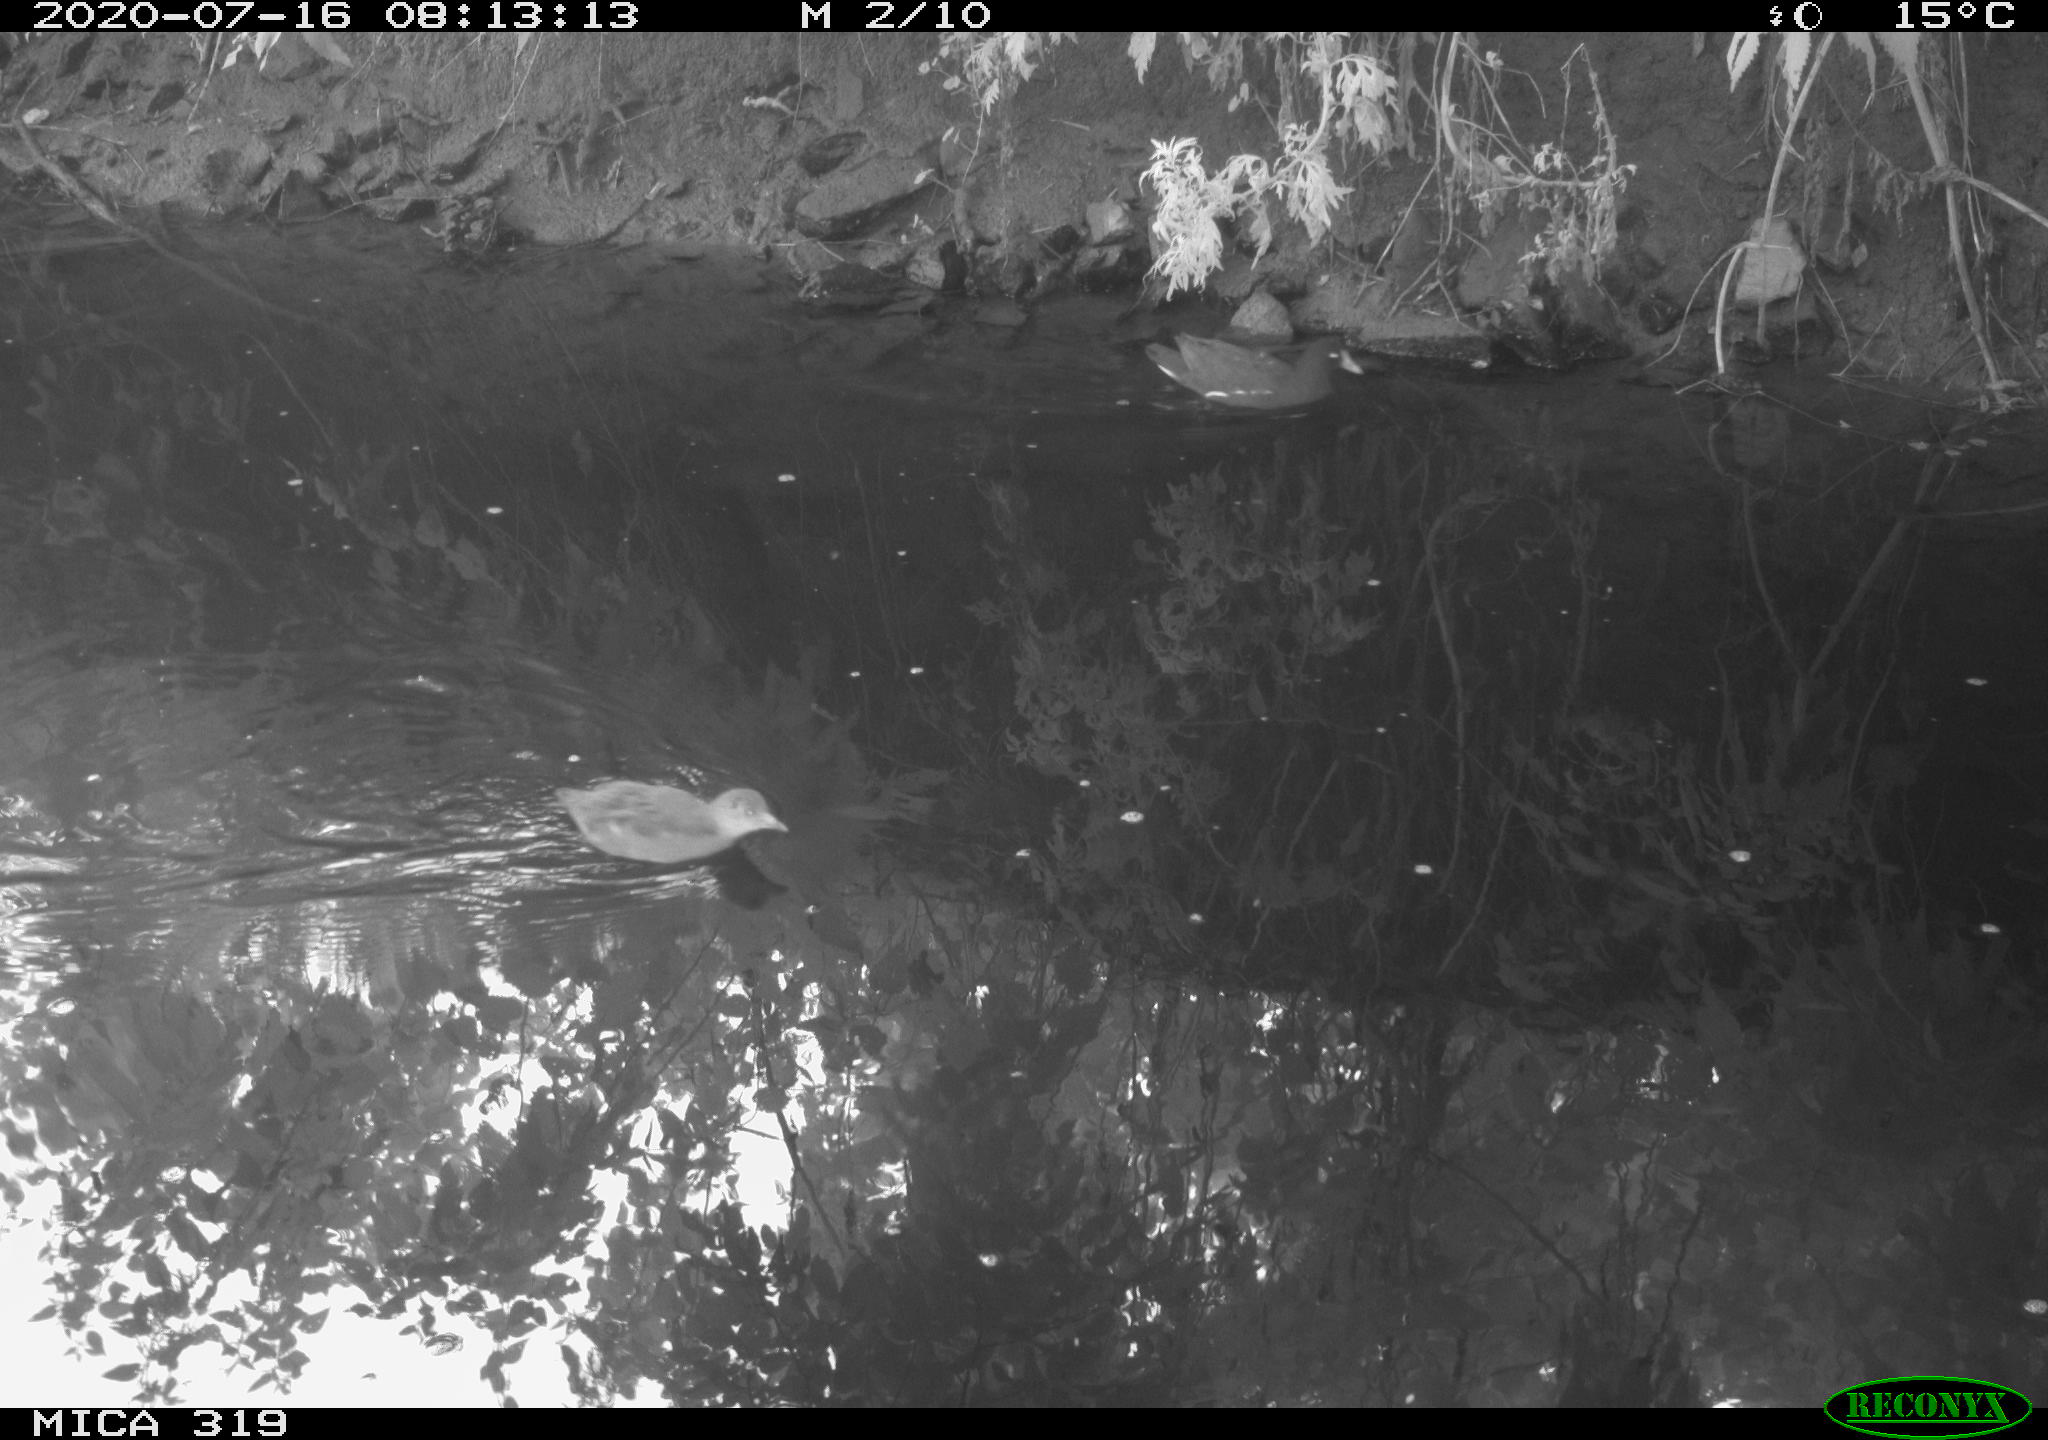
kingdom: Animalia
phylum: Chordata
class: Aves
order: Gruiformes
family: Rallidae
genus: Gallinula
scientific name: Gallinula chloropus
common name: Common moorhen
